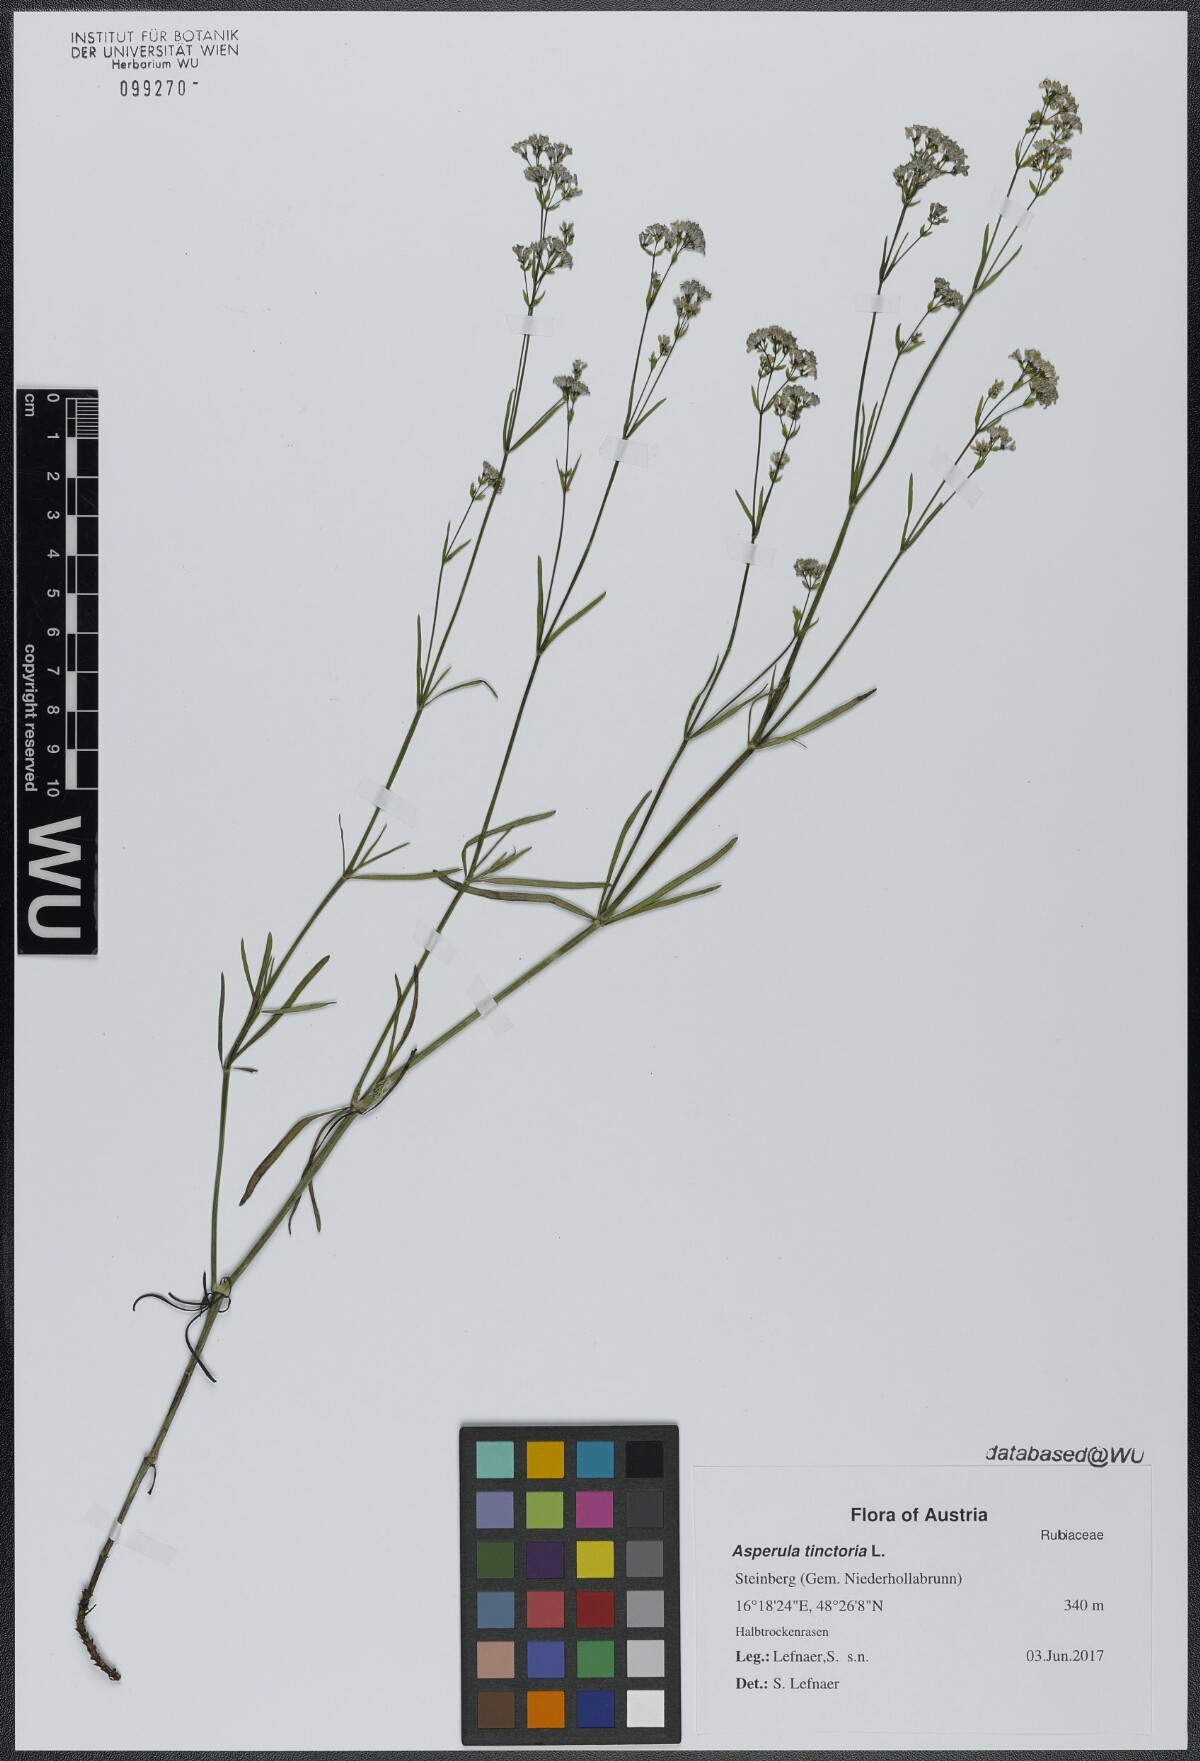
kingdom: Plantae
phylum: Tracheophyta
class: Magnoliopsida
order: Gentianales
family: Rubiaceae
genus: Asperula
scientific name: Asperula tinctoria
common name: Dyer's woodruff
